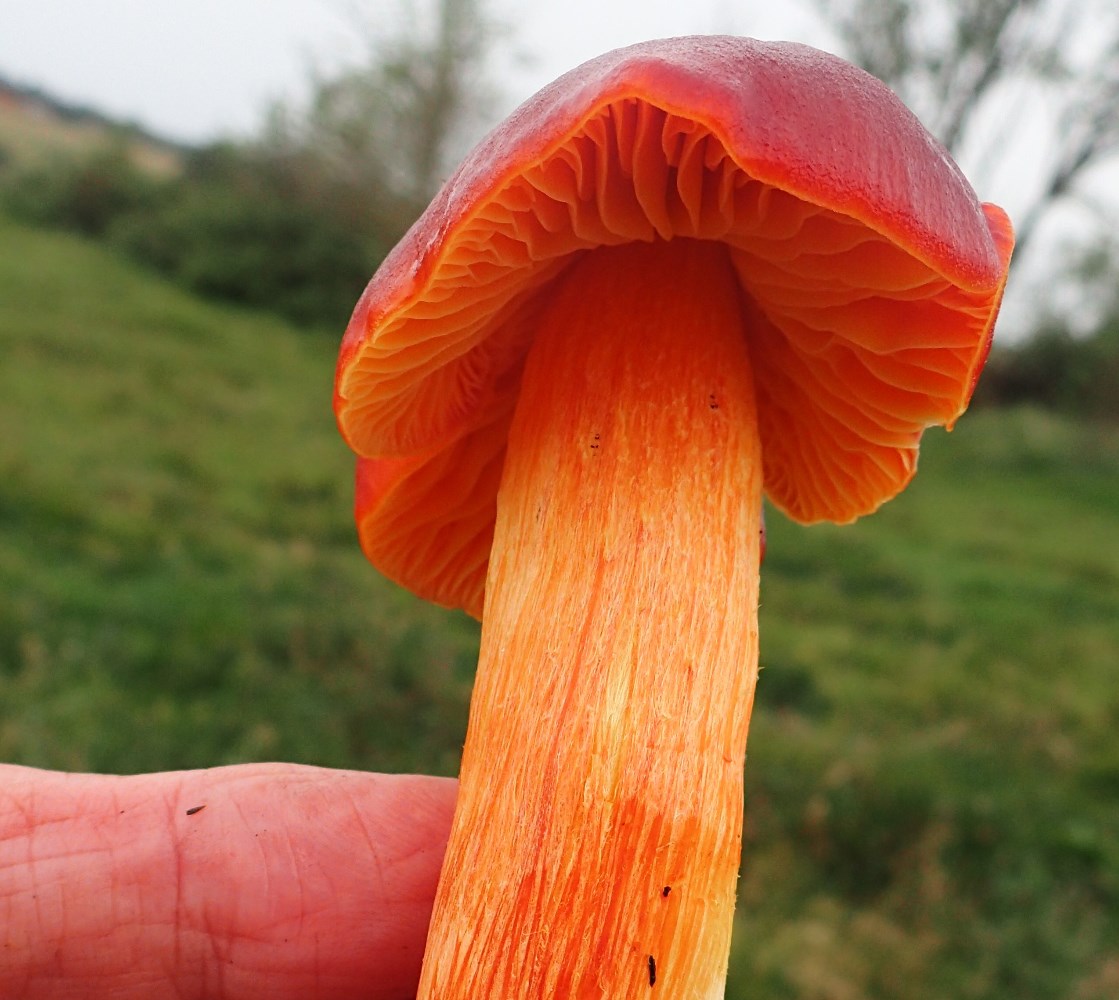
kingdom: Fungi
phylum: Basidiomycota
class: Agaricomycetes
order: Agaricales
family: Hygrophoraceae
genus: Hygrocybe
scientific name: Hygrocybe punicea
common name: skarlagen-vokshat
